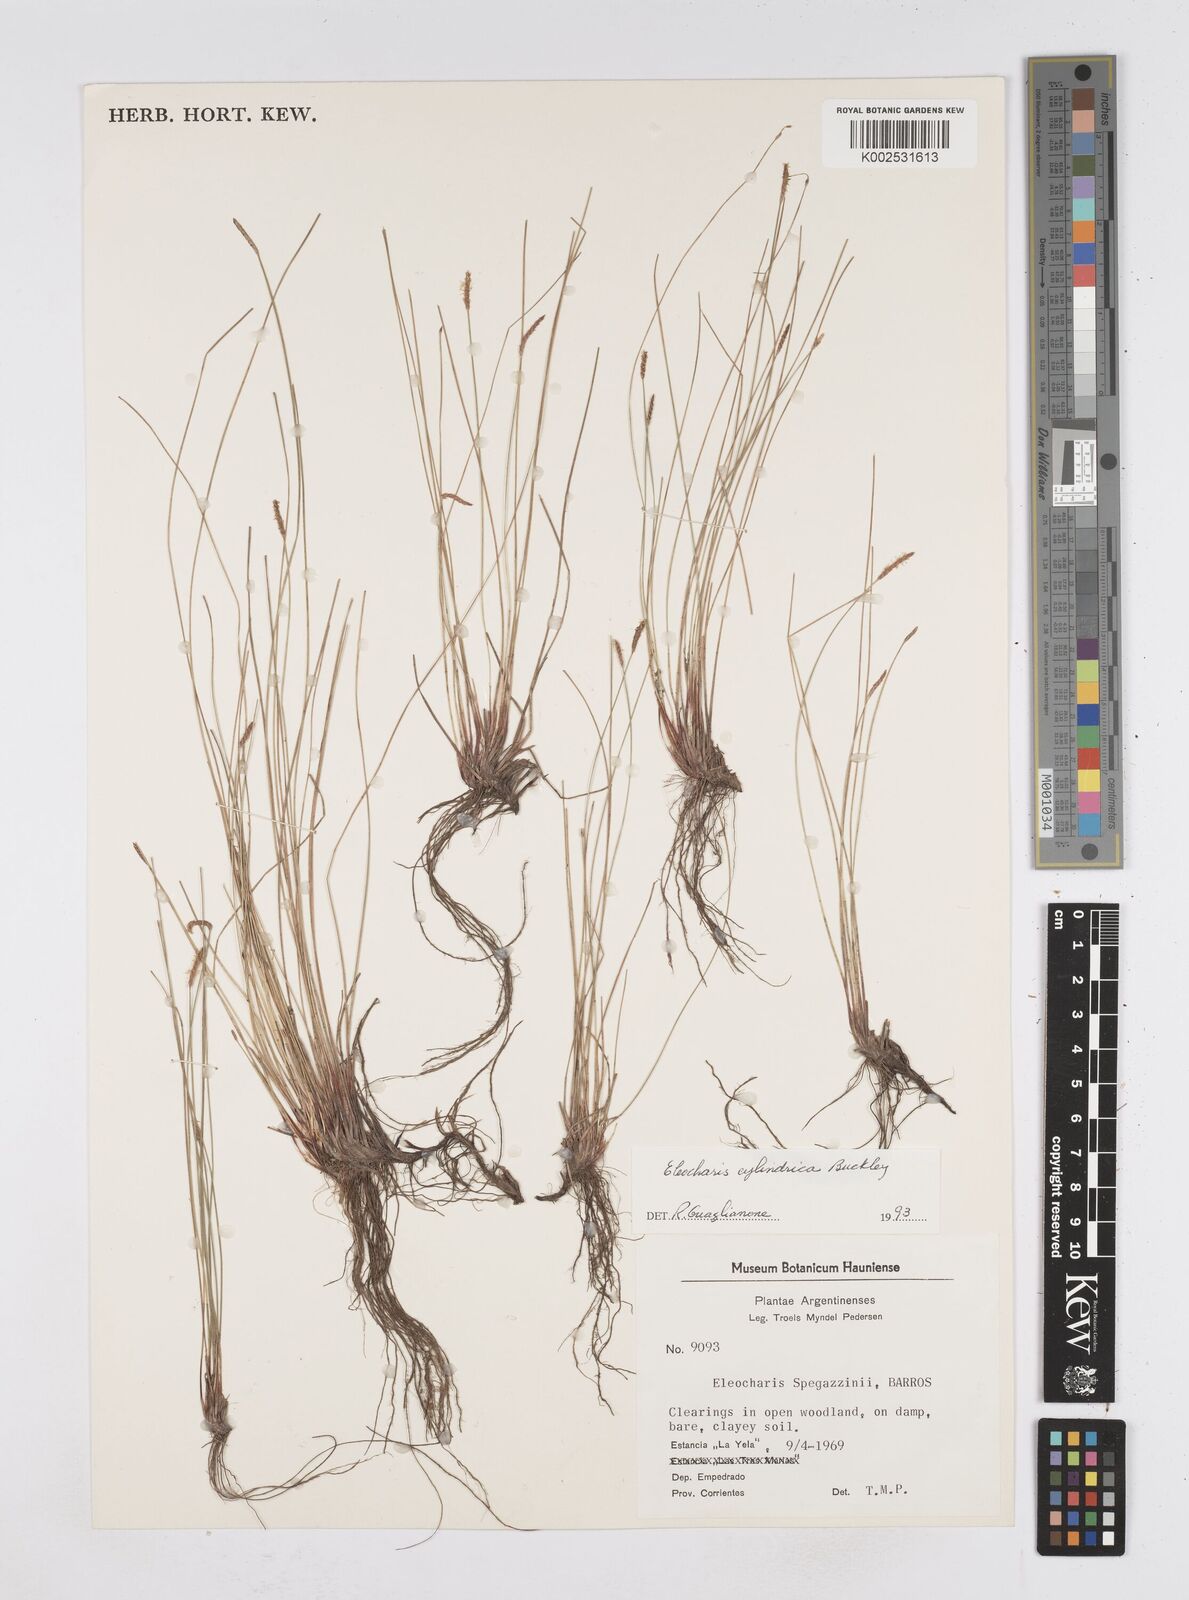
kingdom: Plantae
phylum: Tracheophyta
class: Liliopsida
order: Poales
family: Cyperaceae
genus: Eleocharis
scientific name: Eleocharis cylindrica
